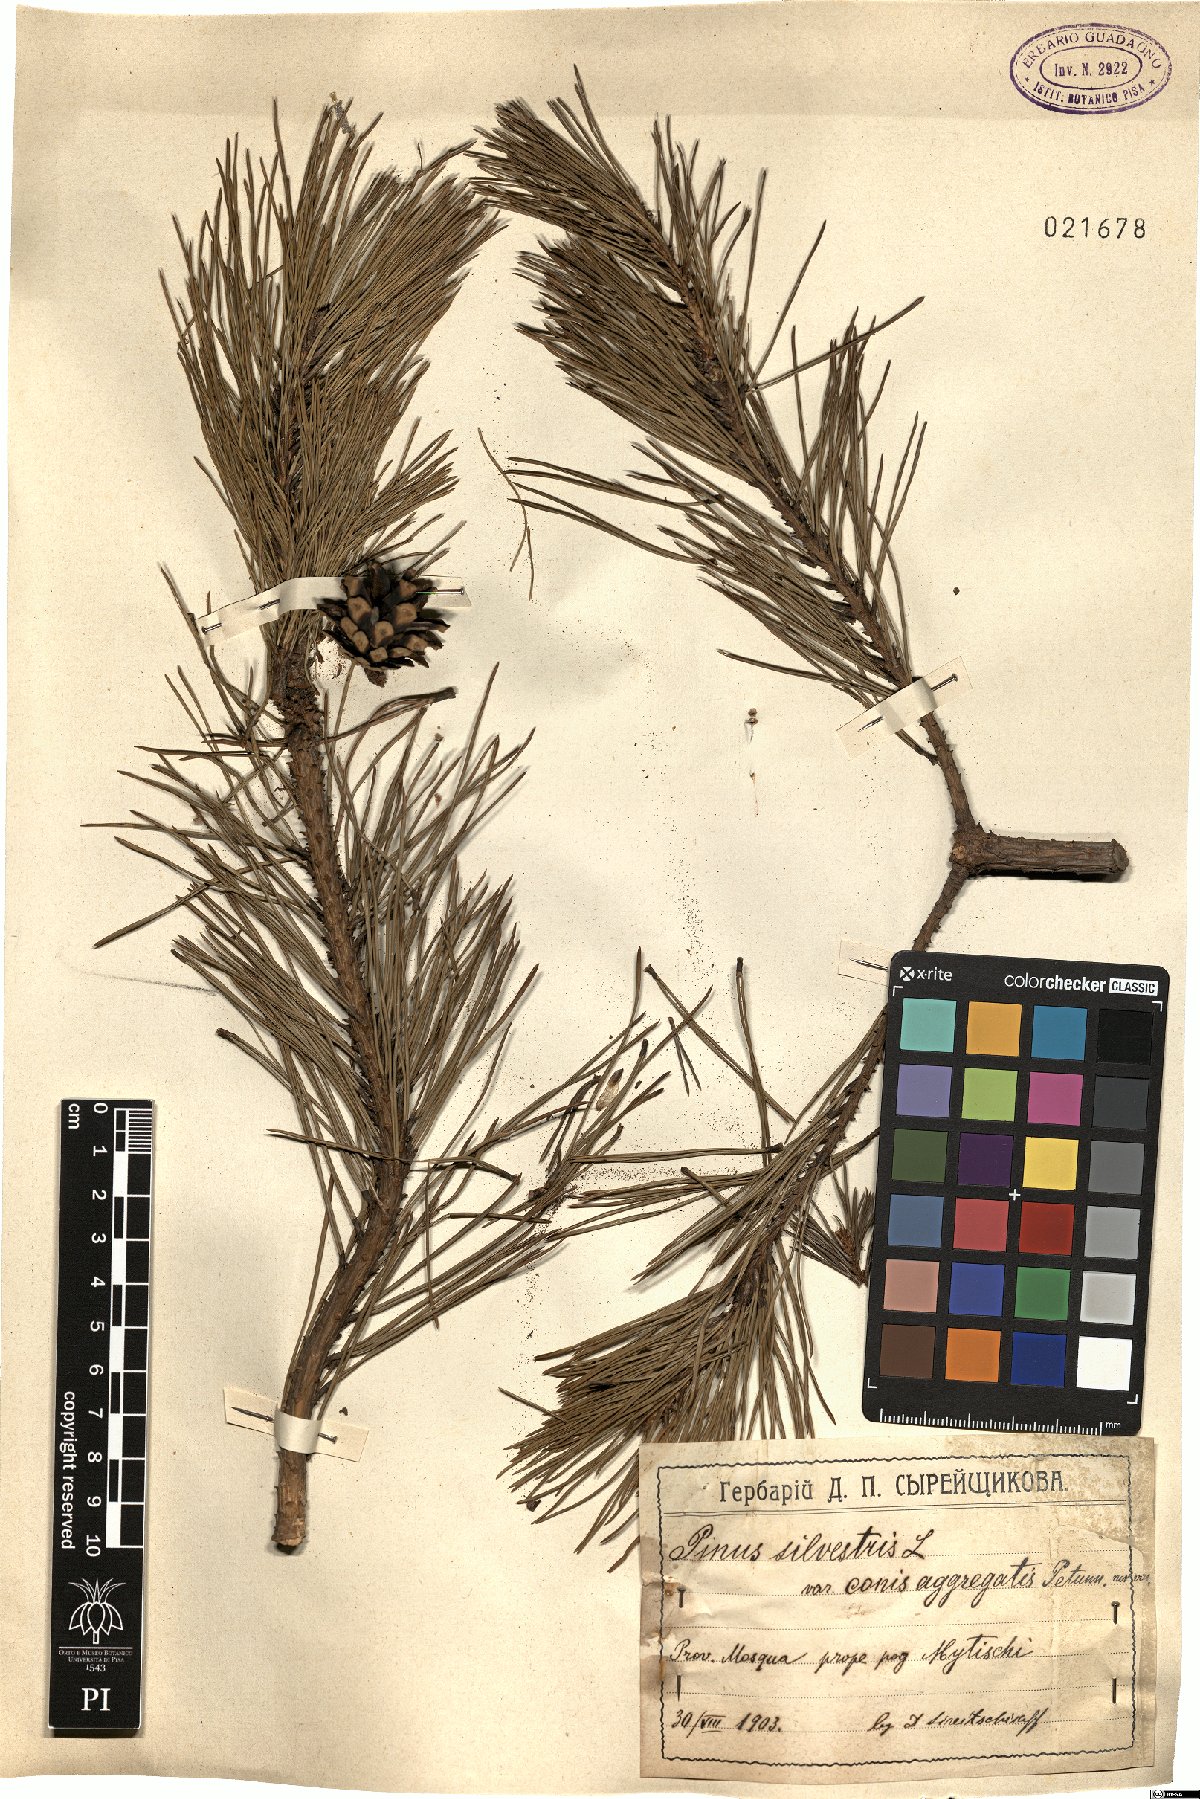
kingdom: Plantae
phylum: Tracheophyta
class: Pinopsida
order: Pinales
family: Pinaceae
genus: Pinus
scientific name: Pinus sylvestris
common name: Scots pine
